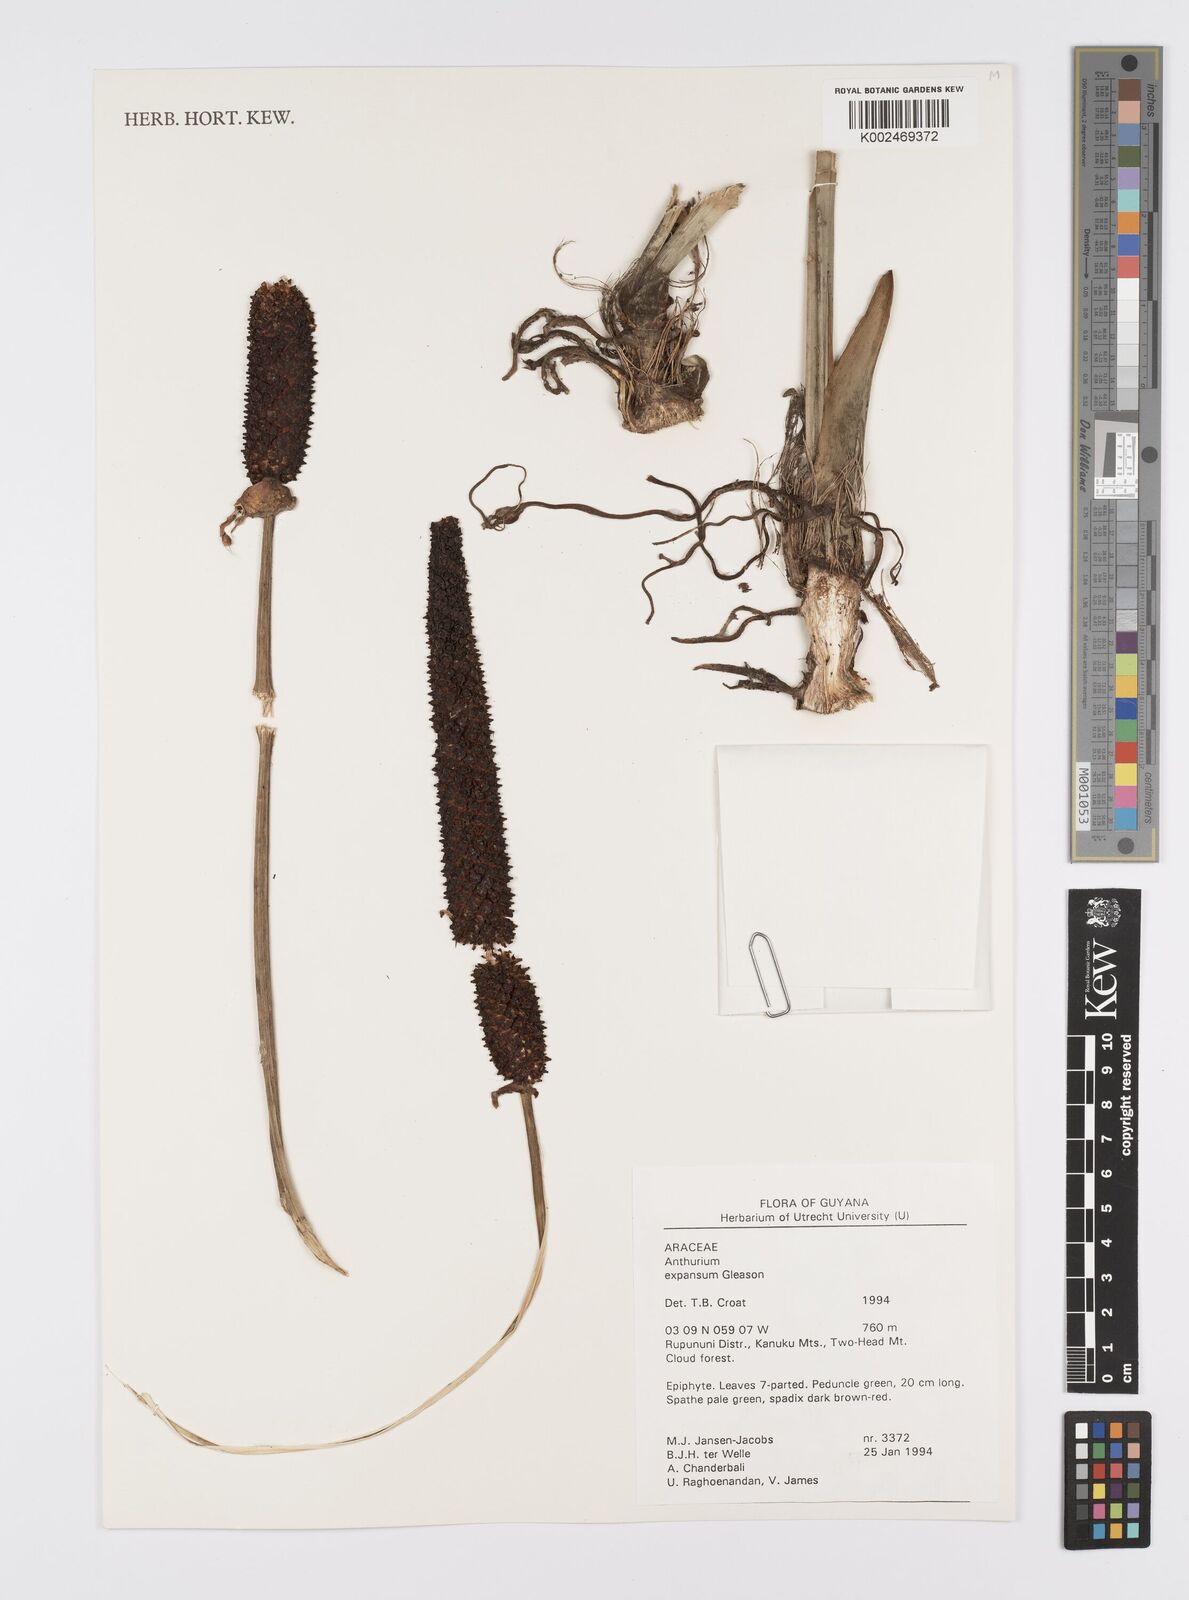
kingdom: Plantae
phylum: Tracheophyta
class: Liliopsida
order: Alismatales
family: Araceae
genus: Anthurium
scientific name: Anthurium expansum
